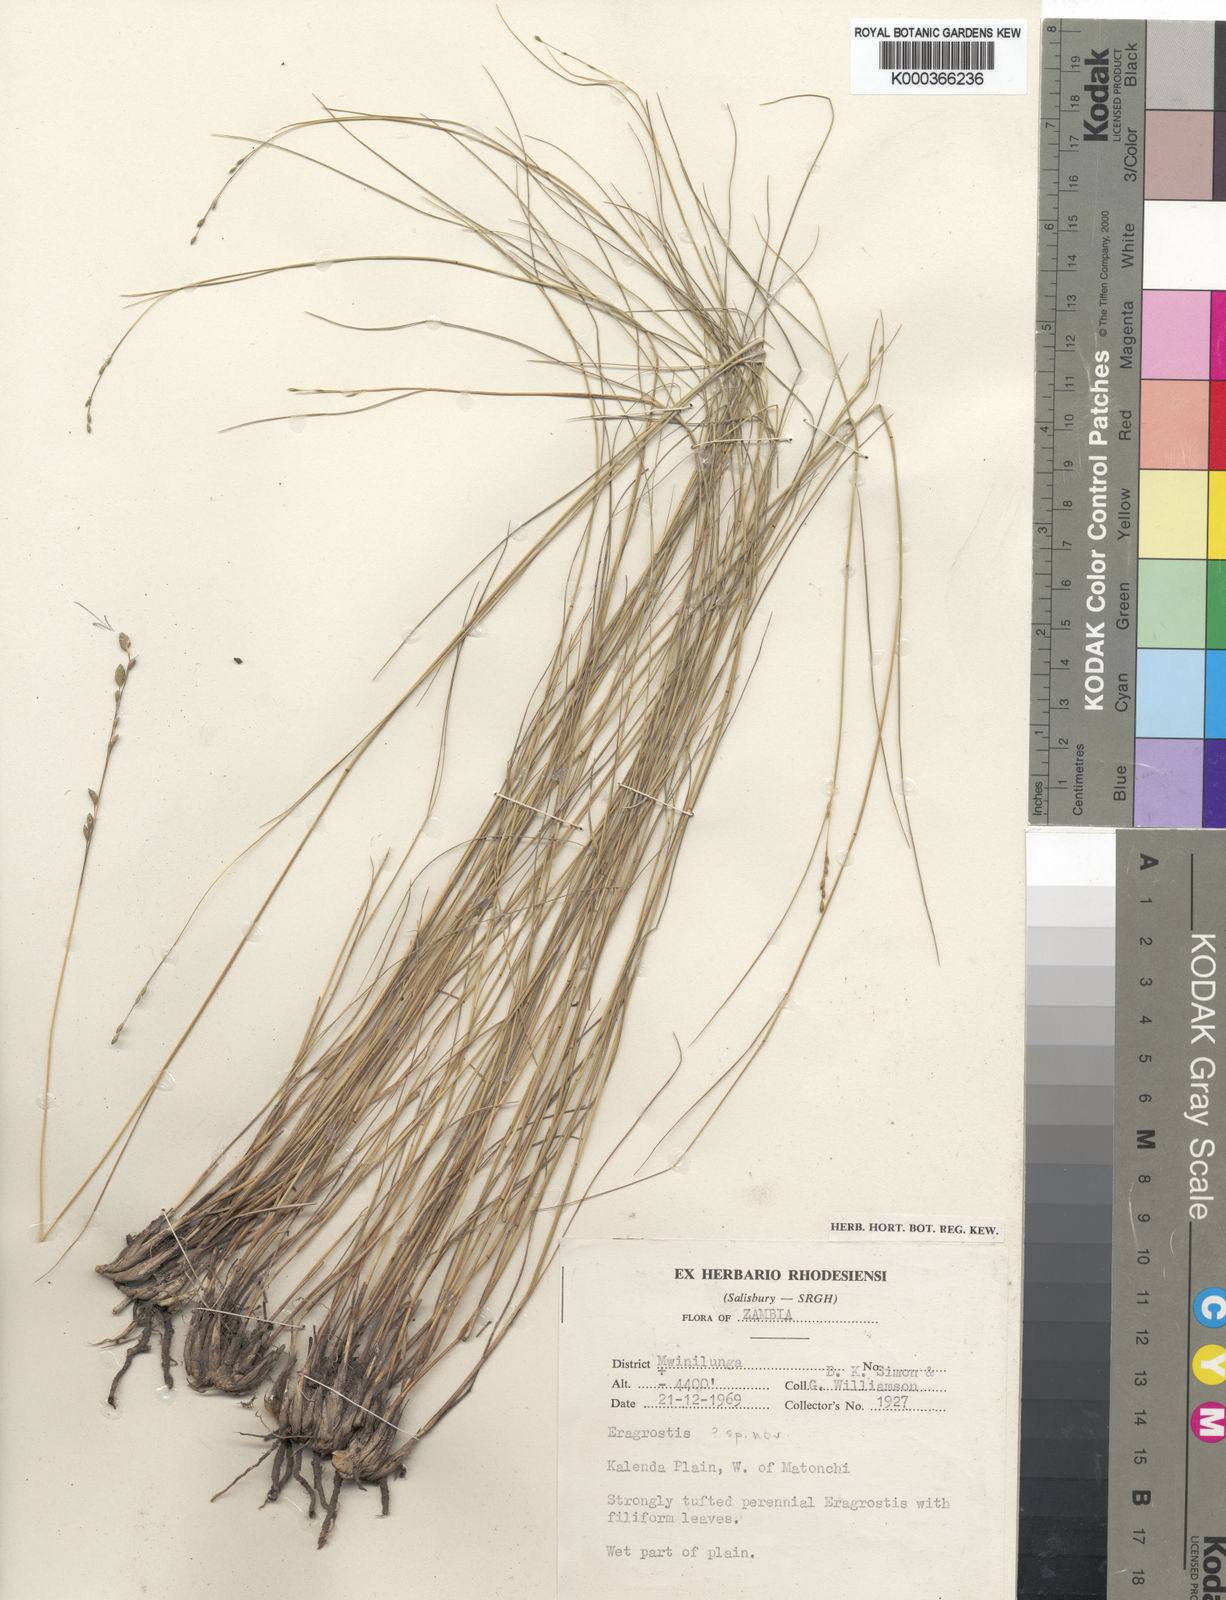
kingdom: Plantae
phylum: Tracheophyta
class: Liliopsida
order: Poales
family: Poaceae
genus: Eragrostis
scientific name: Eragrostis lepidobasis
